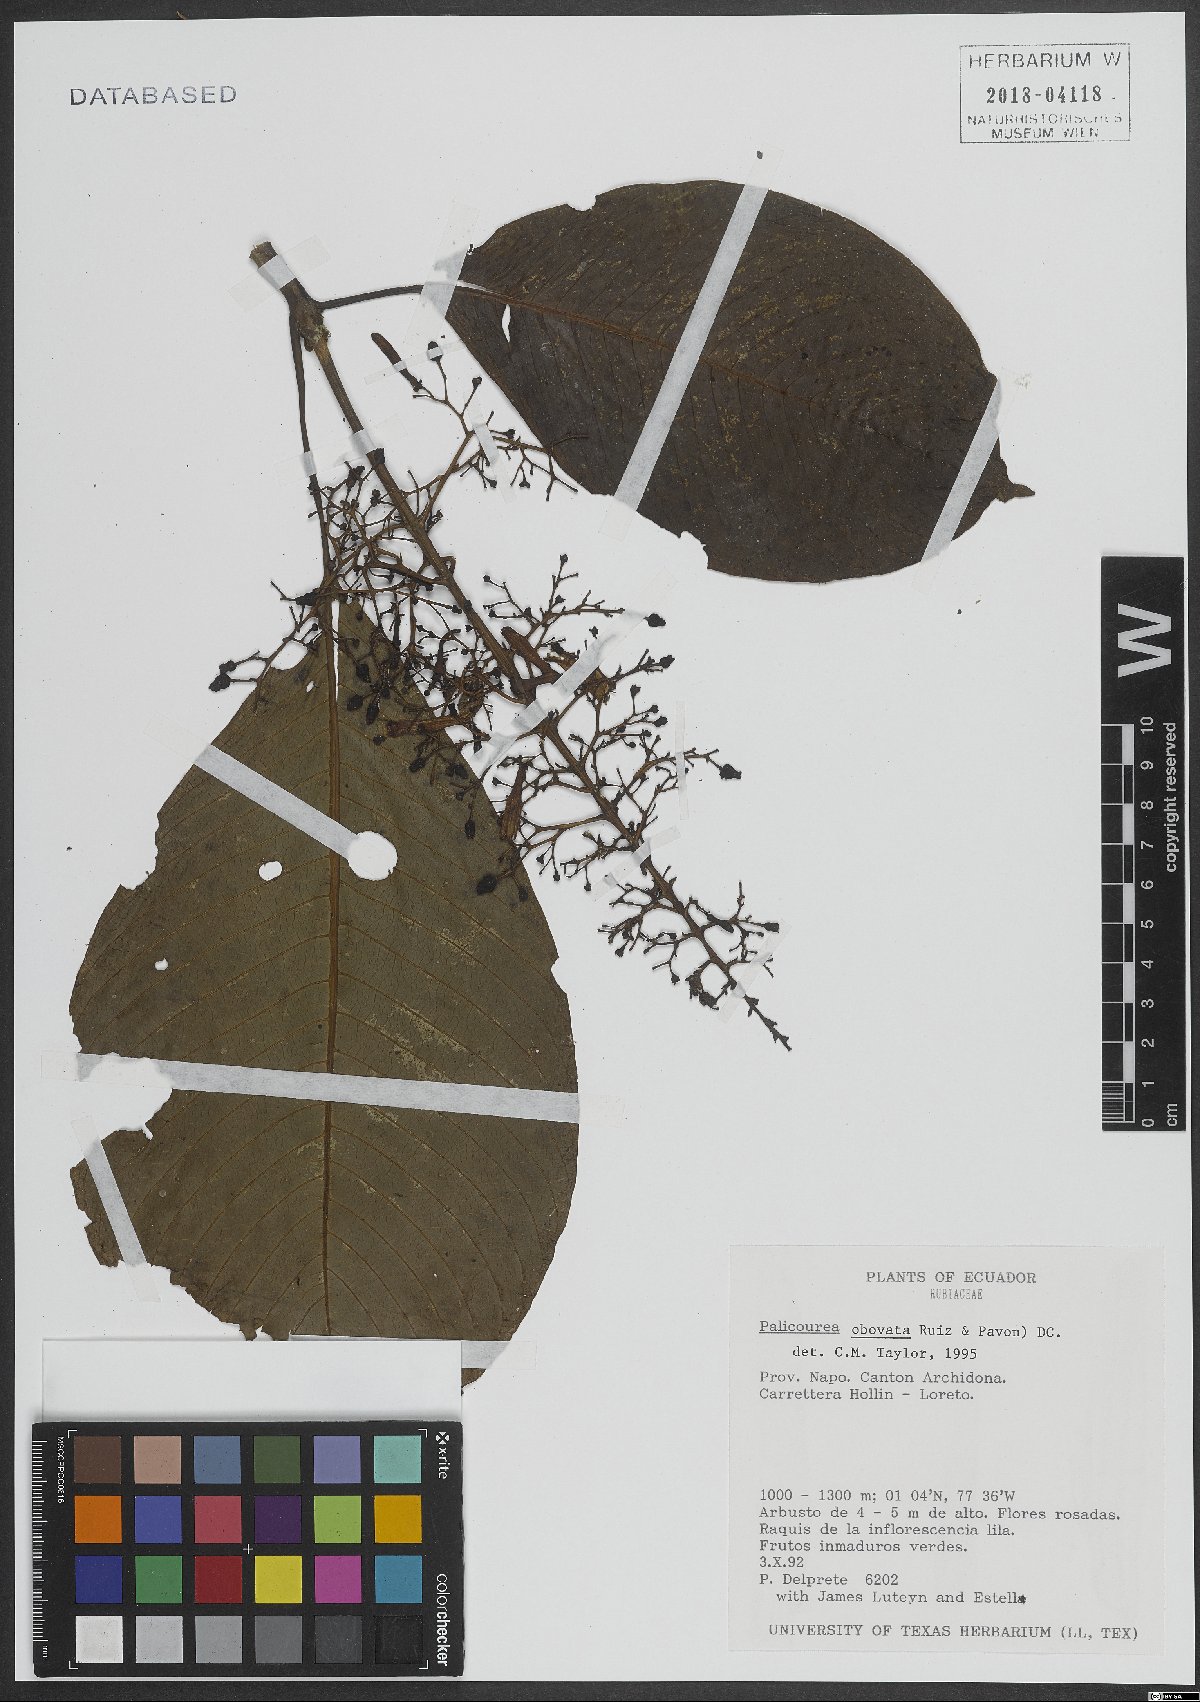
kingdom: Plantae
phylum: Tracheophyta
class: Magnoliopsida
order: Gentianales
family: Rubiaceae
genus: Palicourea
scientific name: Palicourea obovata
